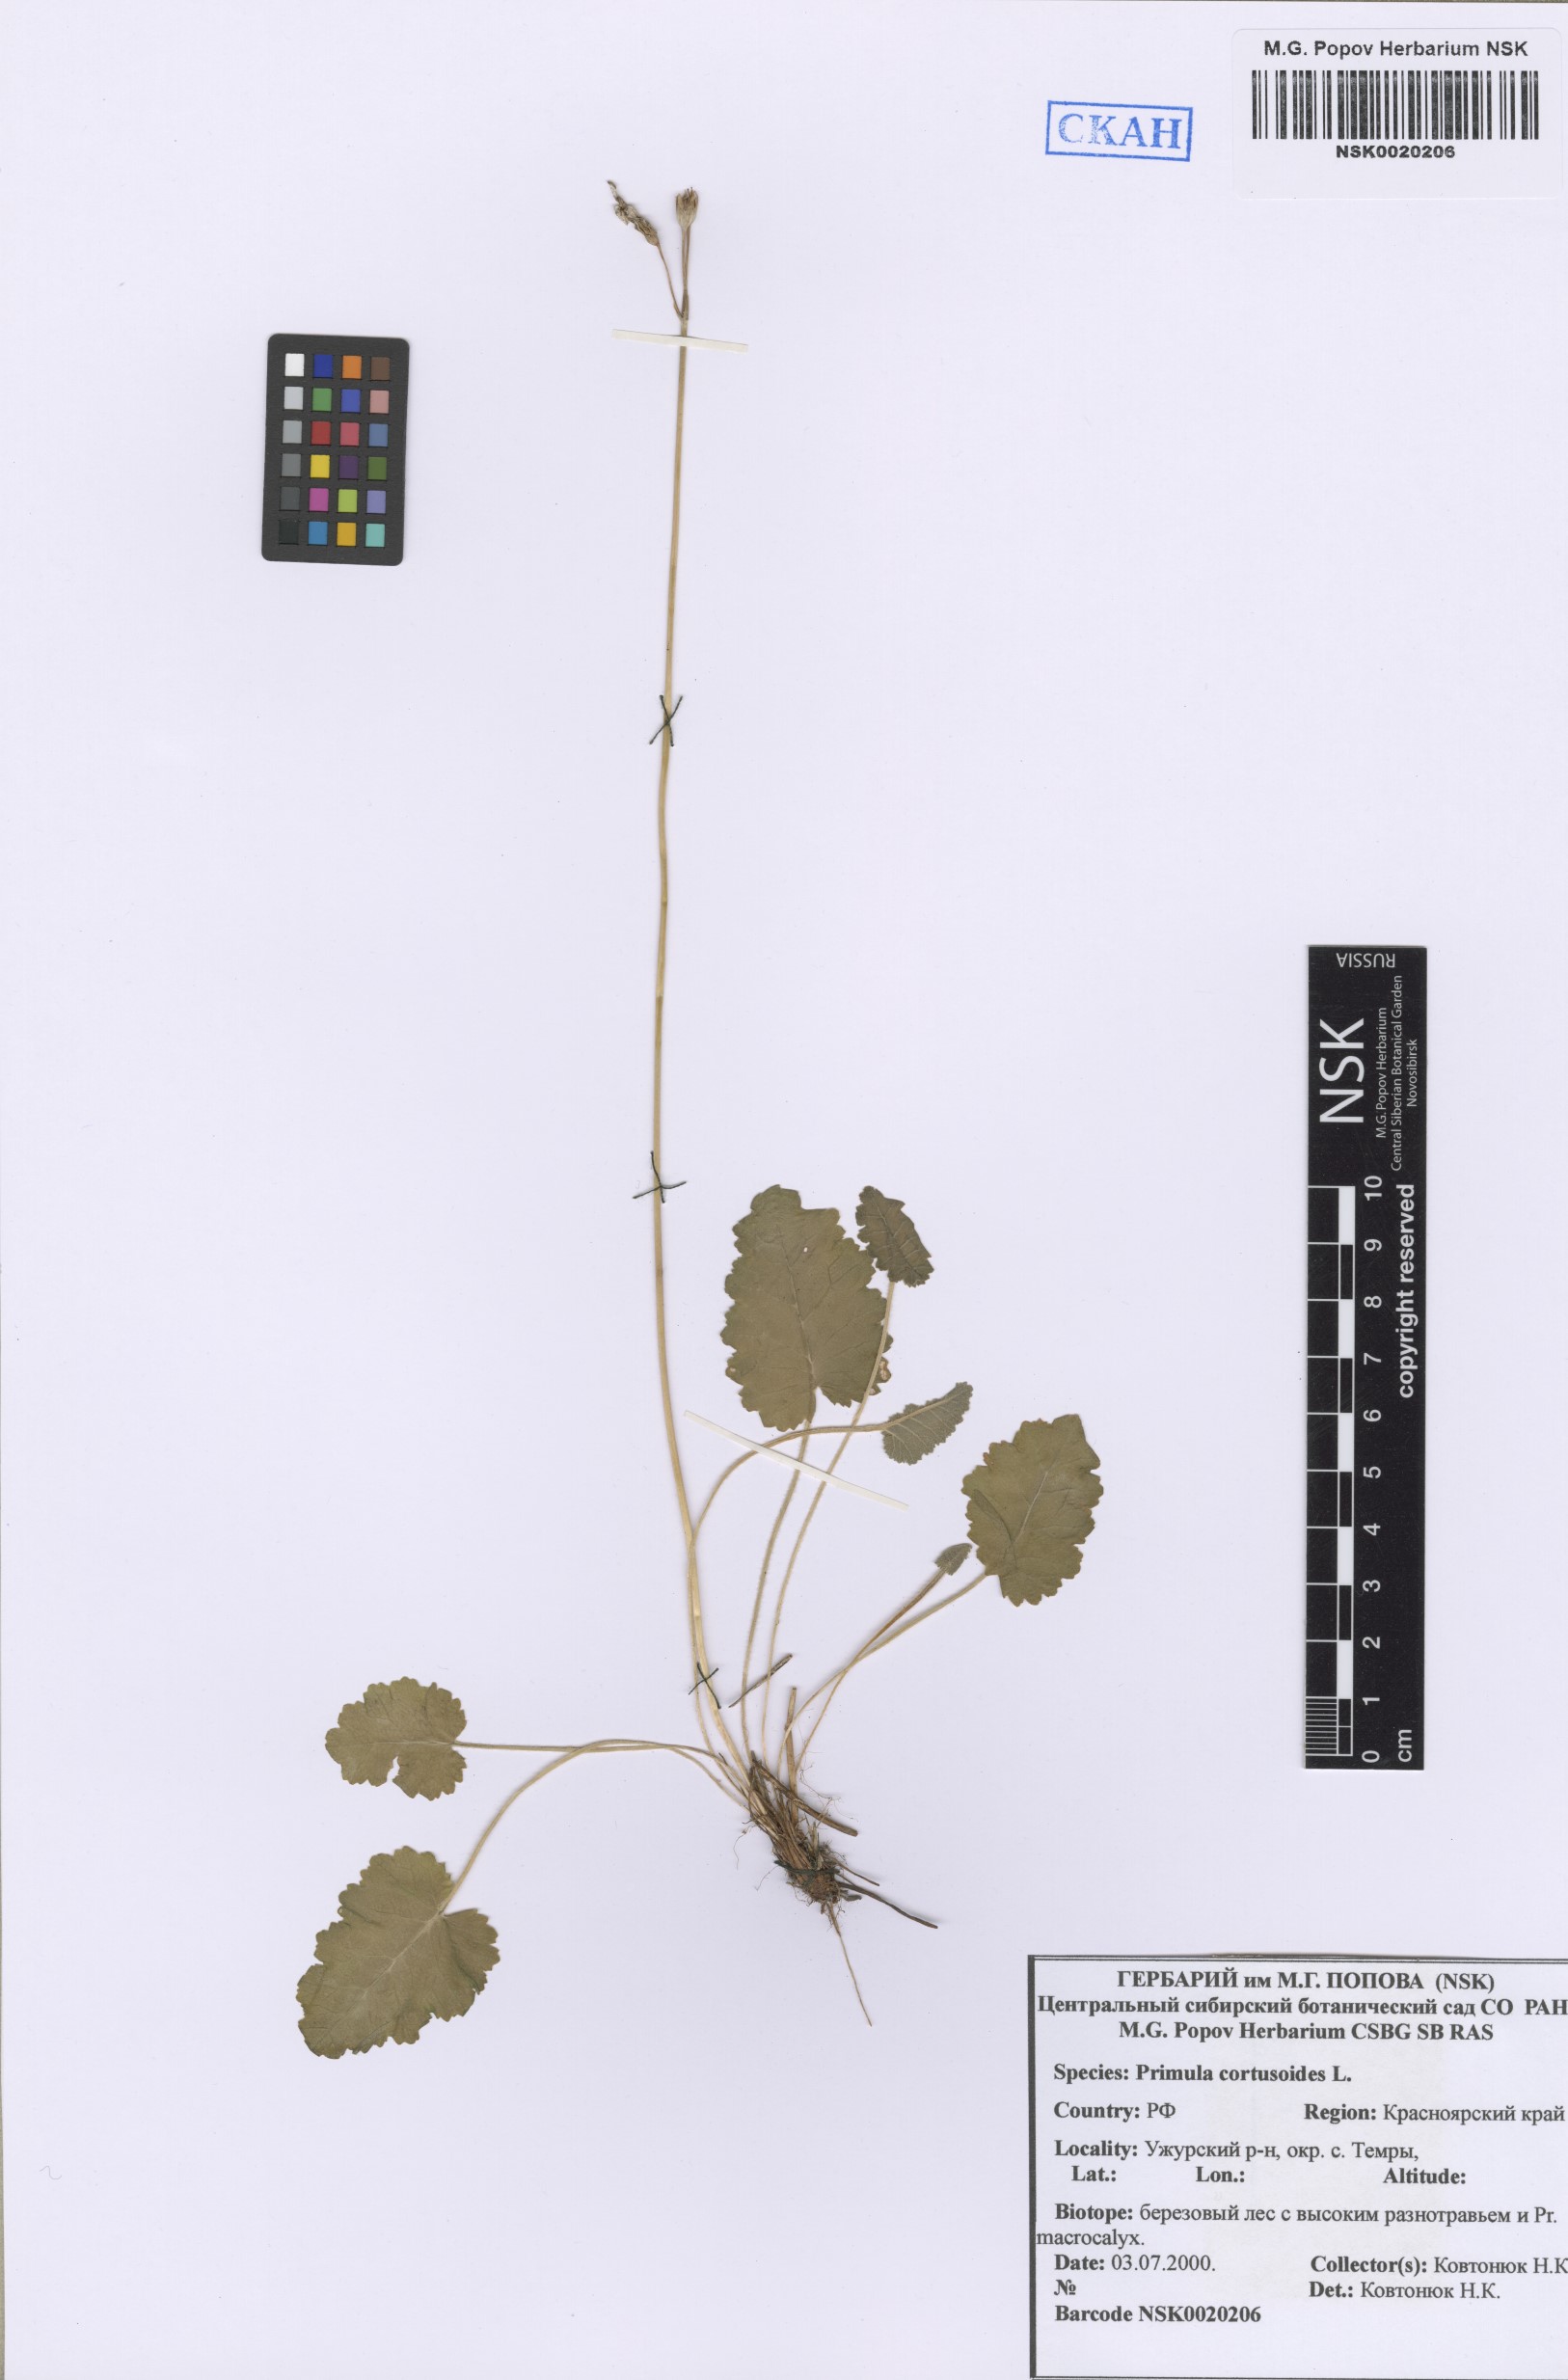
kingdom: Plantae
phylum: Tracheophyta
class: Magnoliopsida
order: Ericales
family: Primulaceae
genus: Primula
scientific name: Primula cortusoides
